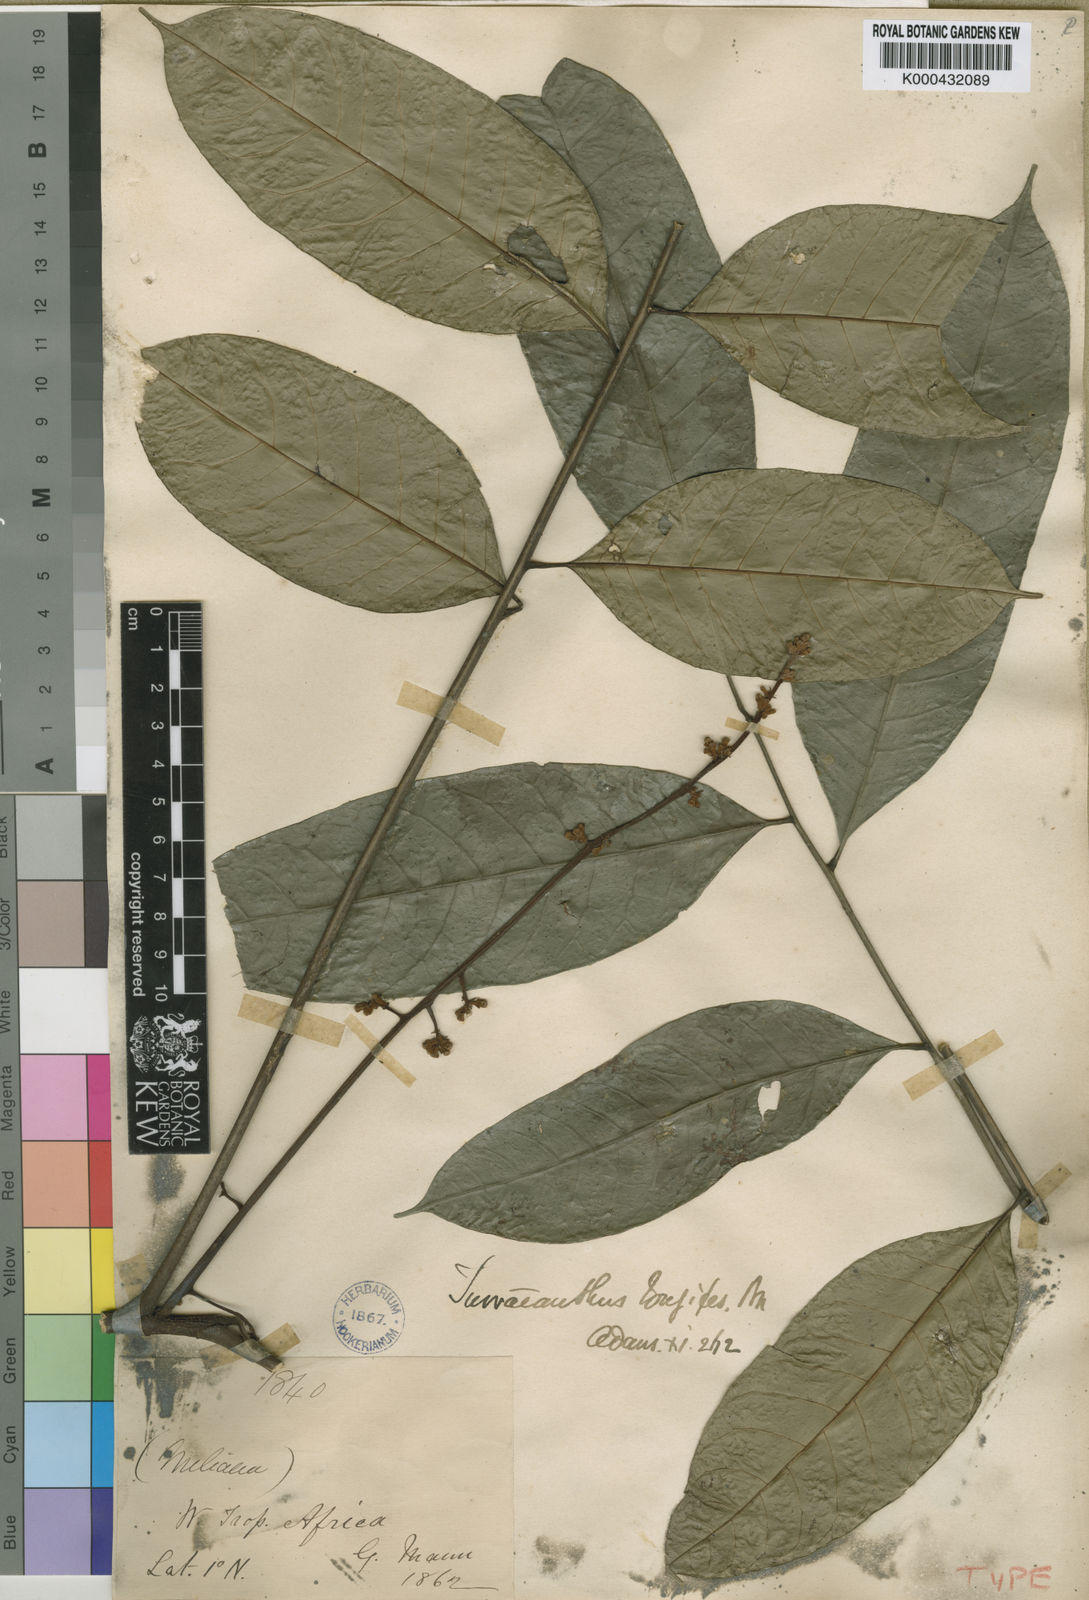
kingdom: Plantae
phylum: Tracheophyta
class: Magnoliopsida
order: Sapindales
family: Meliaceae
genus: Turraeanthus
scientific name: Turraeanthus longipes
